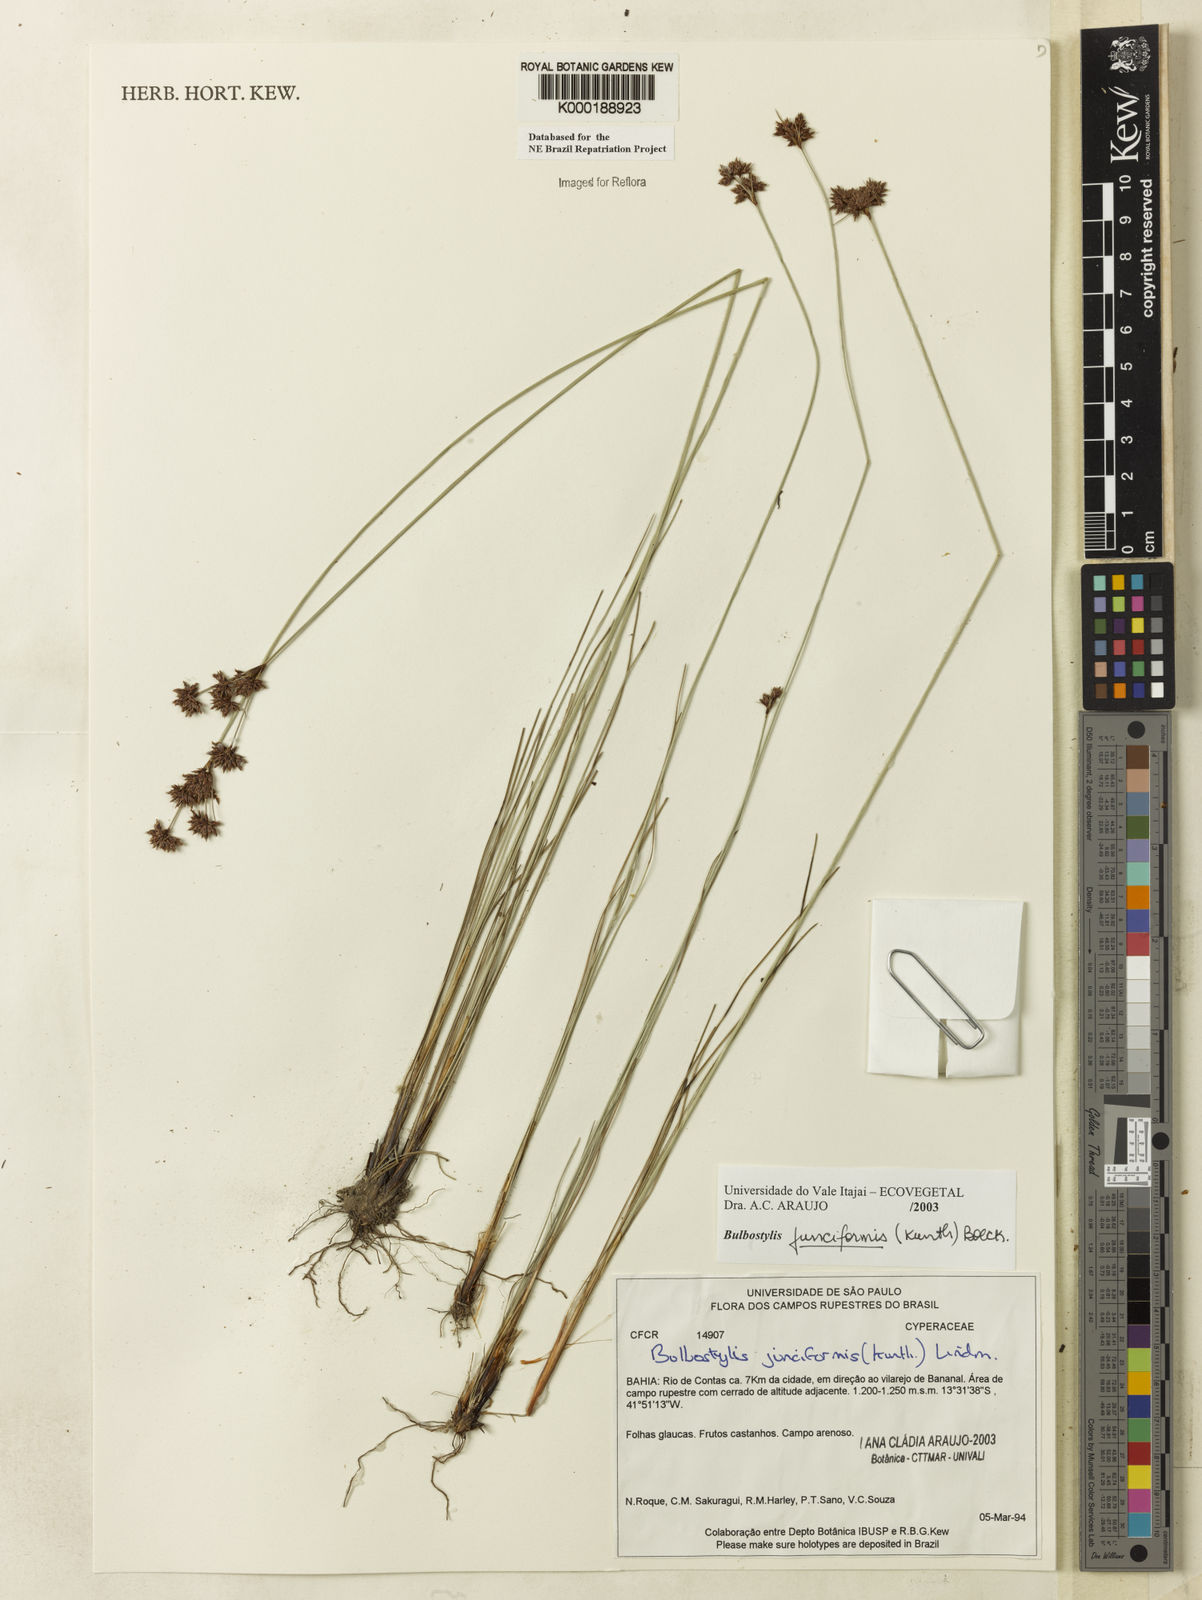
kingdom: Plantae
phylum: Tracheophyta
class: Liliopsida
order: Poales
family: Cyperaceae
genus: Bulbostylis
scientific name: Bulbostylis
